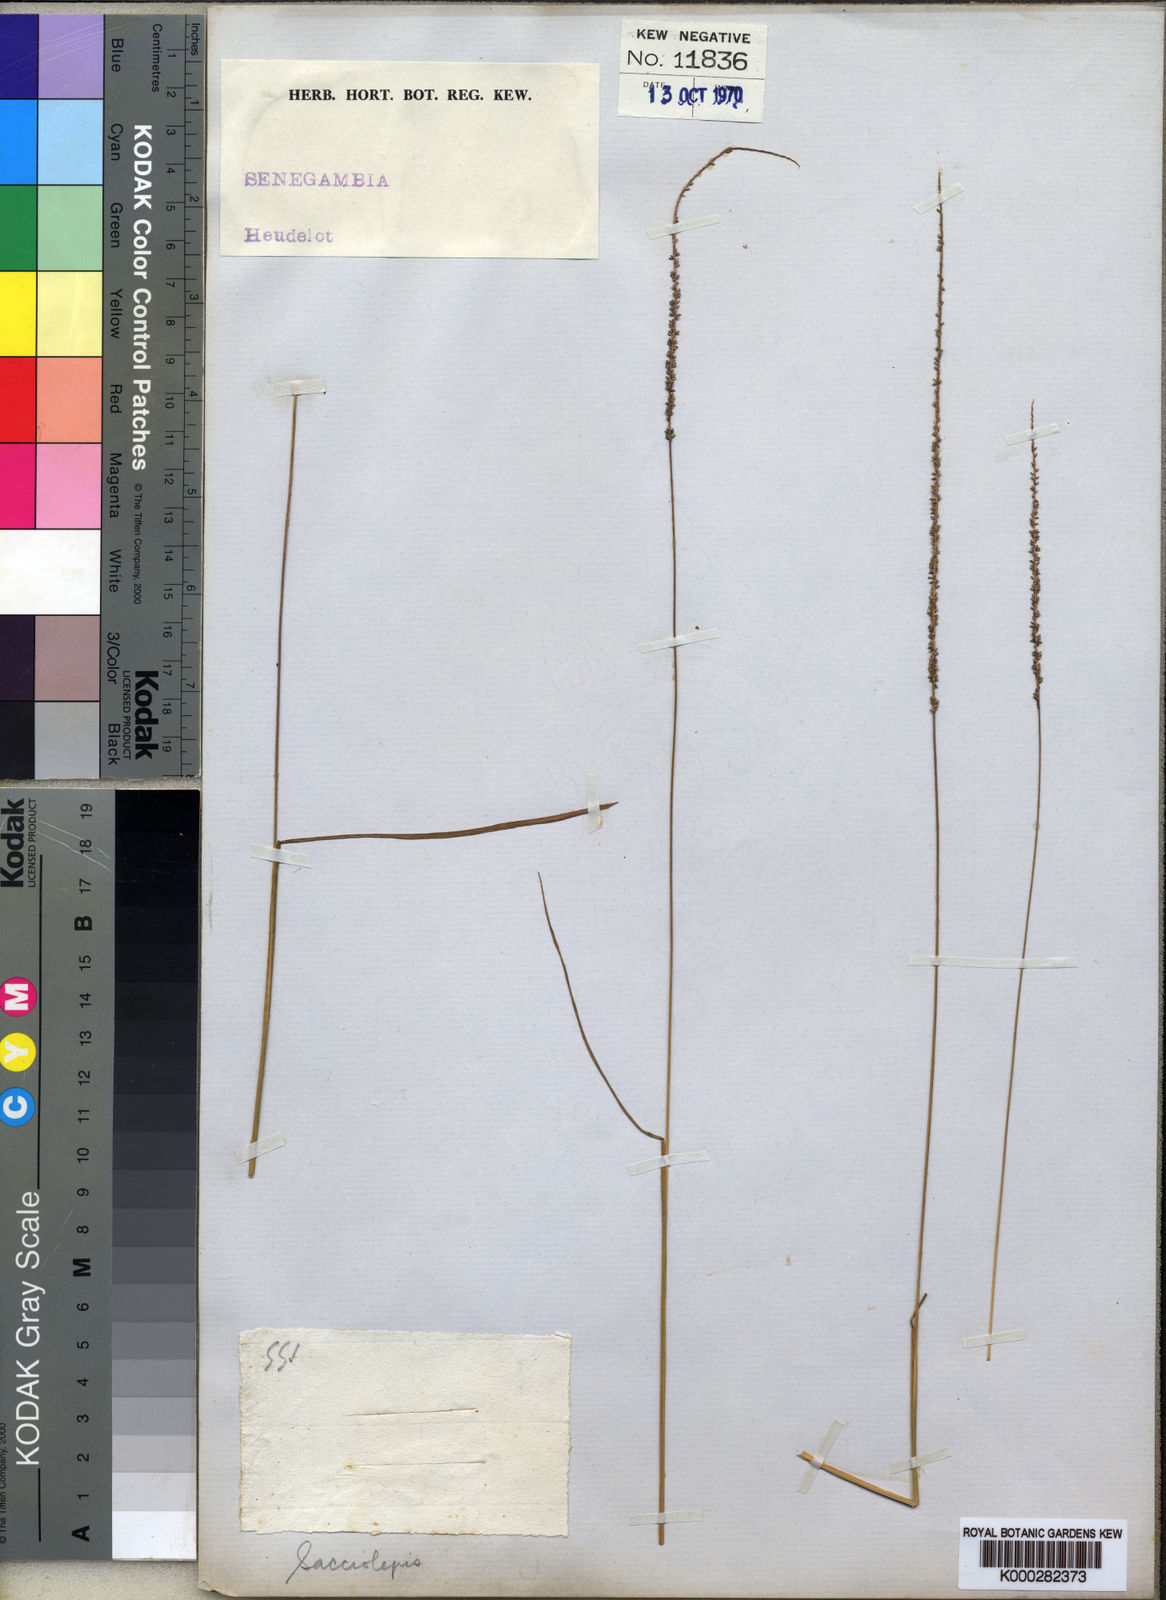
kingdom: Plantae
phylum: Tracheophyta
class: Liliopsida
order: Poales
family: Poaceae
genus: Sacciolepis
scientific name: Sacciolepis micrococca
